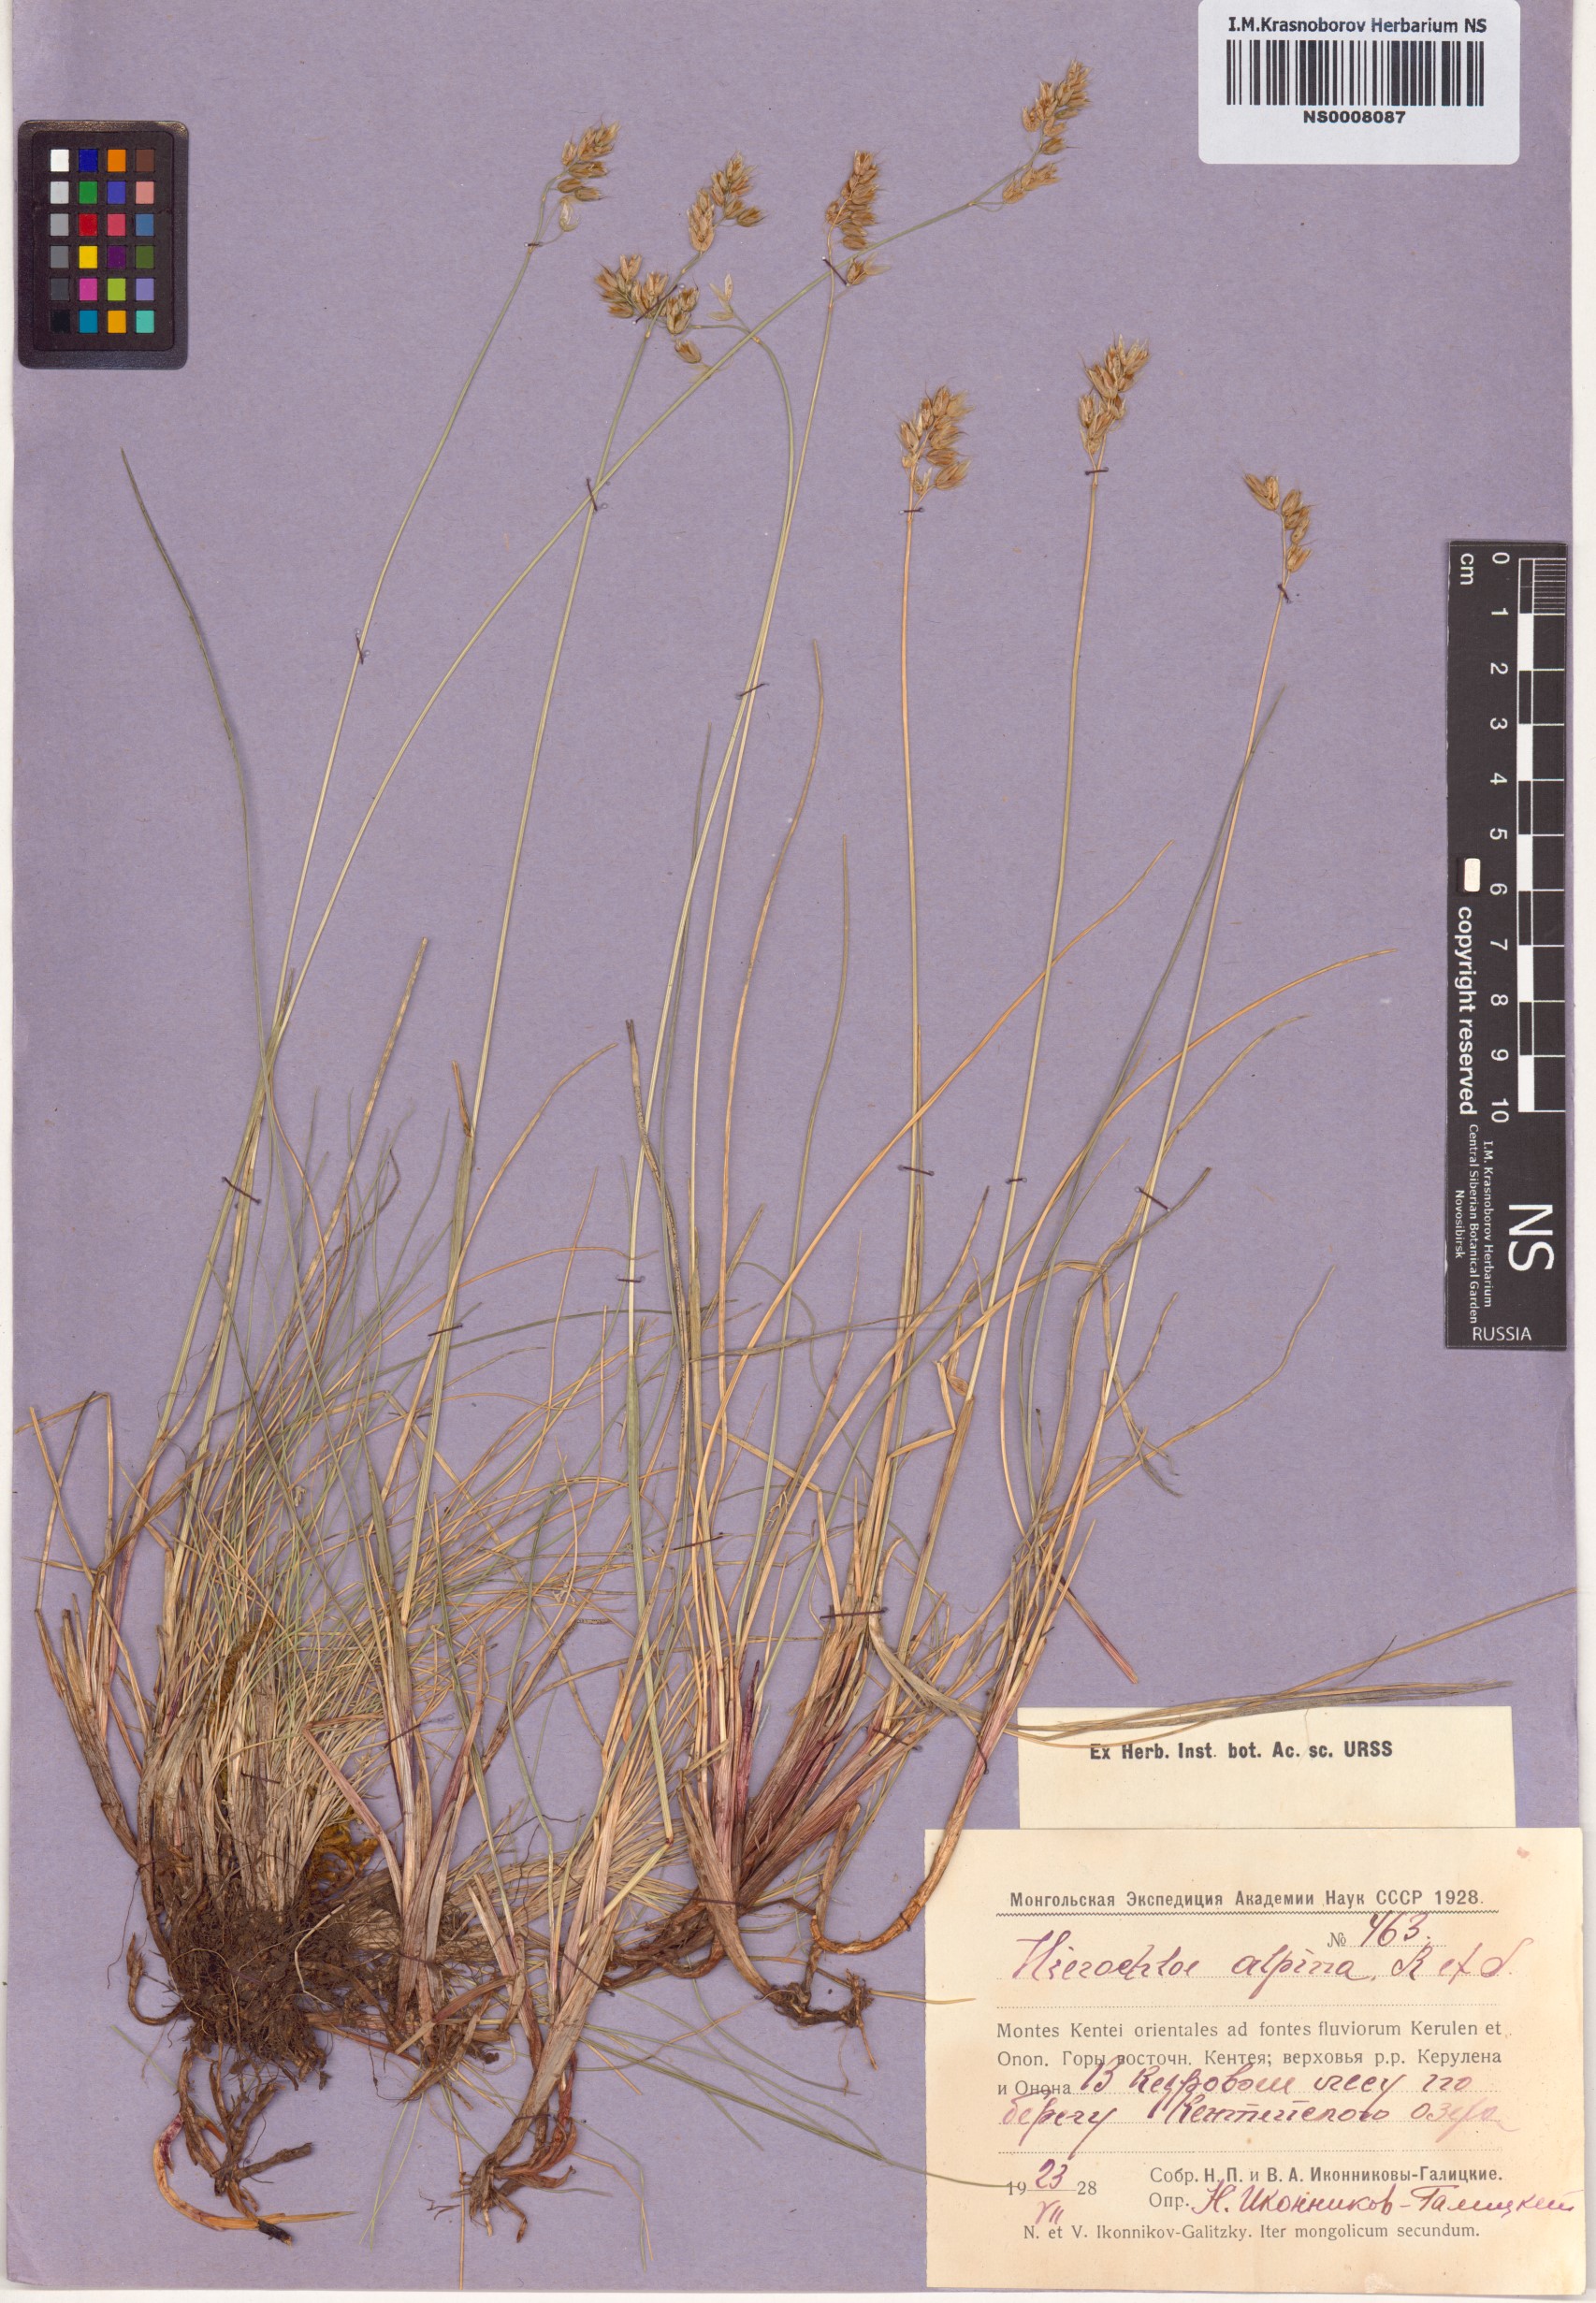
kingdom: Plantae
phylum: Tracheophyta
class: Liliopsida
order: Poales
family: Poaceae
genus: Anthoxanthum
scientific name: Anthoxanthum monticola
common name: Alpine sweetgrass
